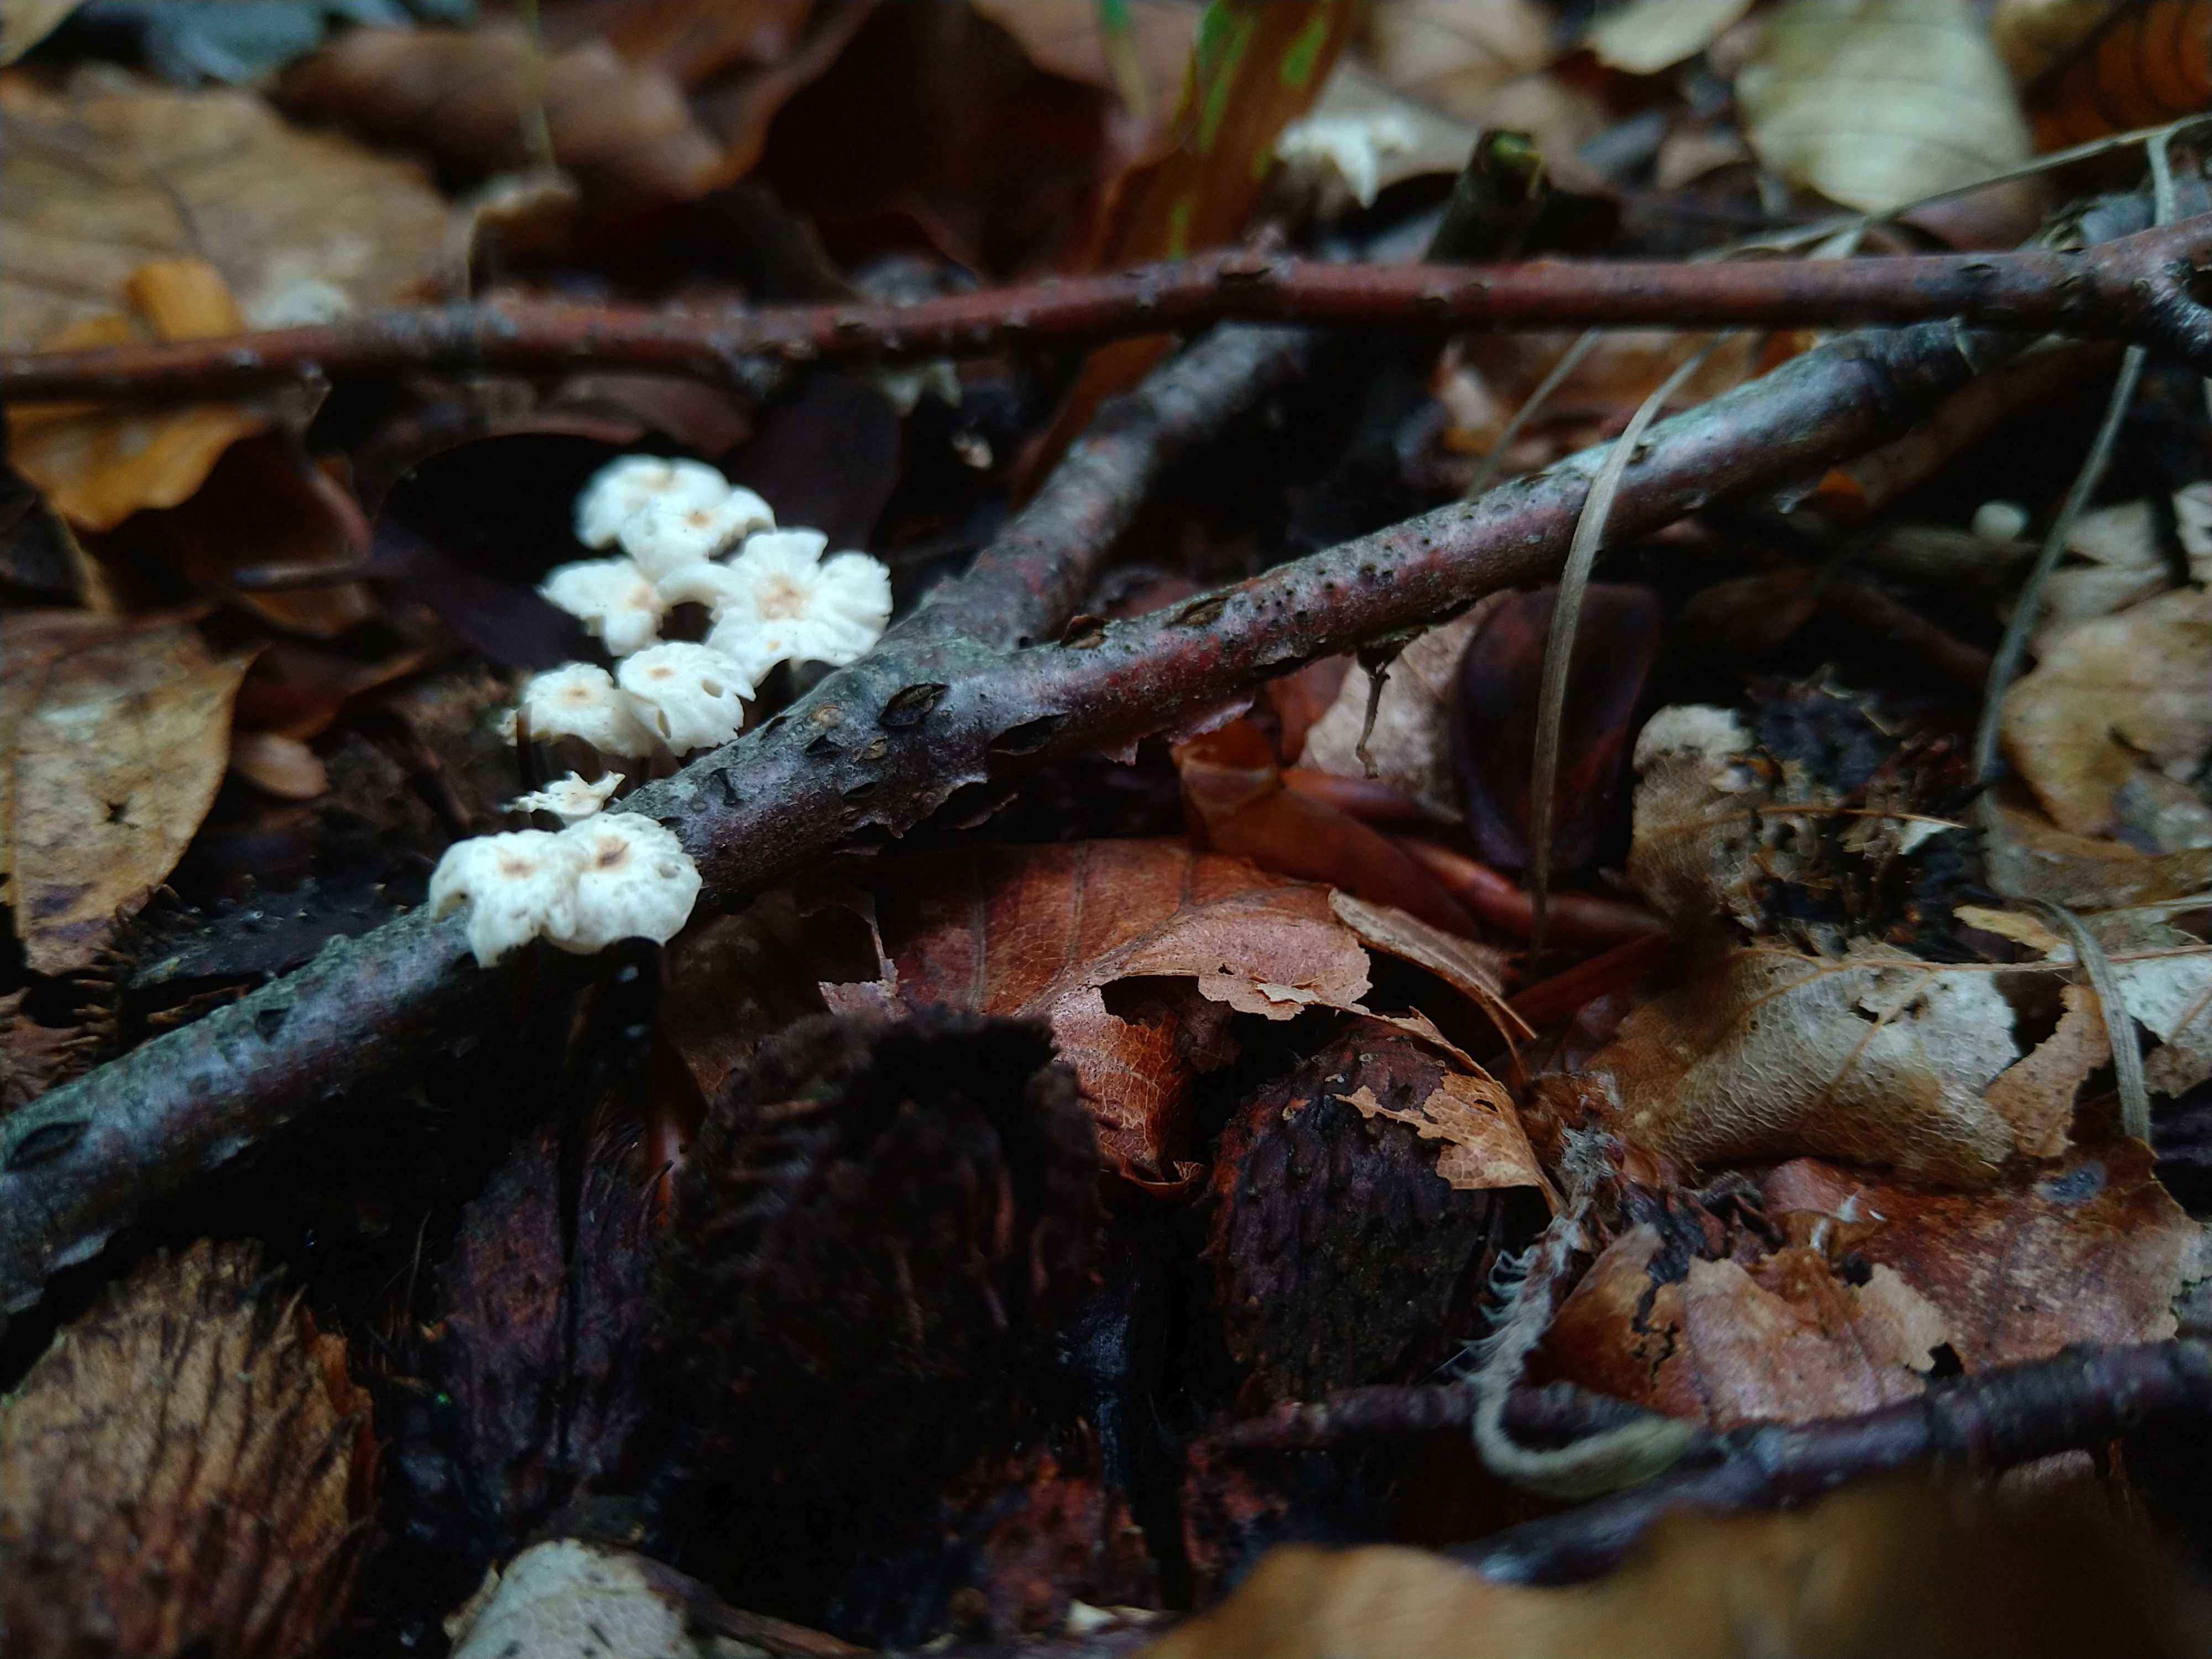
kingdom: Fungi
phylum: Basidiomycota
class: Agaricomycetes
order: Agaricales
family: Marasmiaceae
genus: Marasmius
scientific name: Marasmius rotula
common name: hjul-bruskhat
